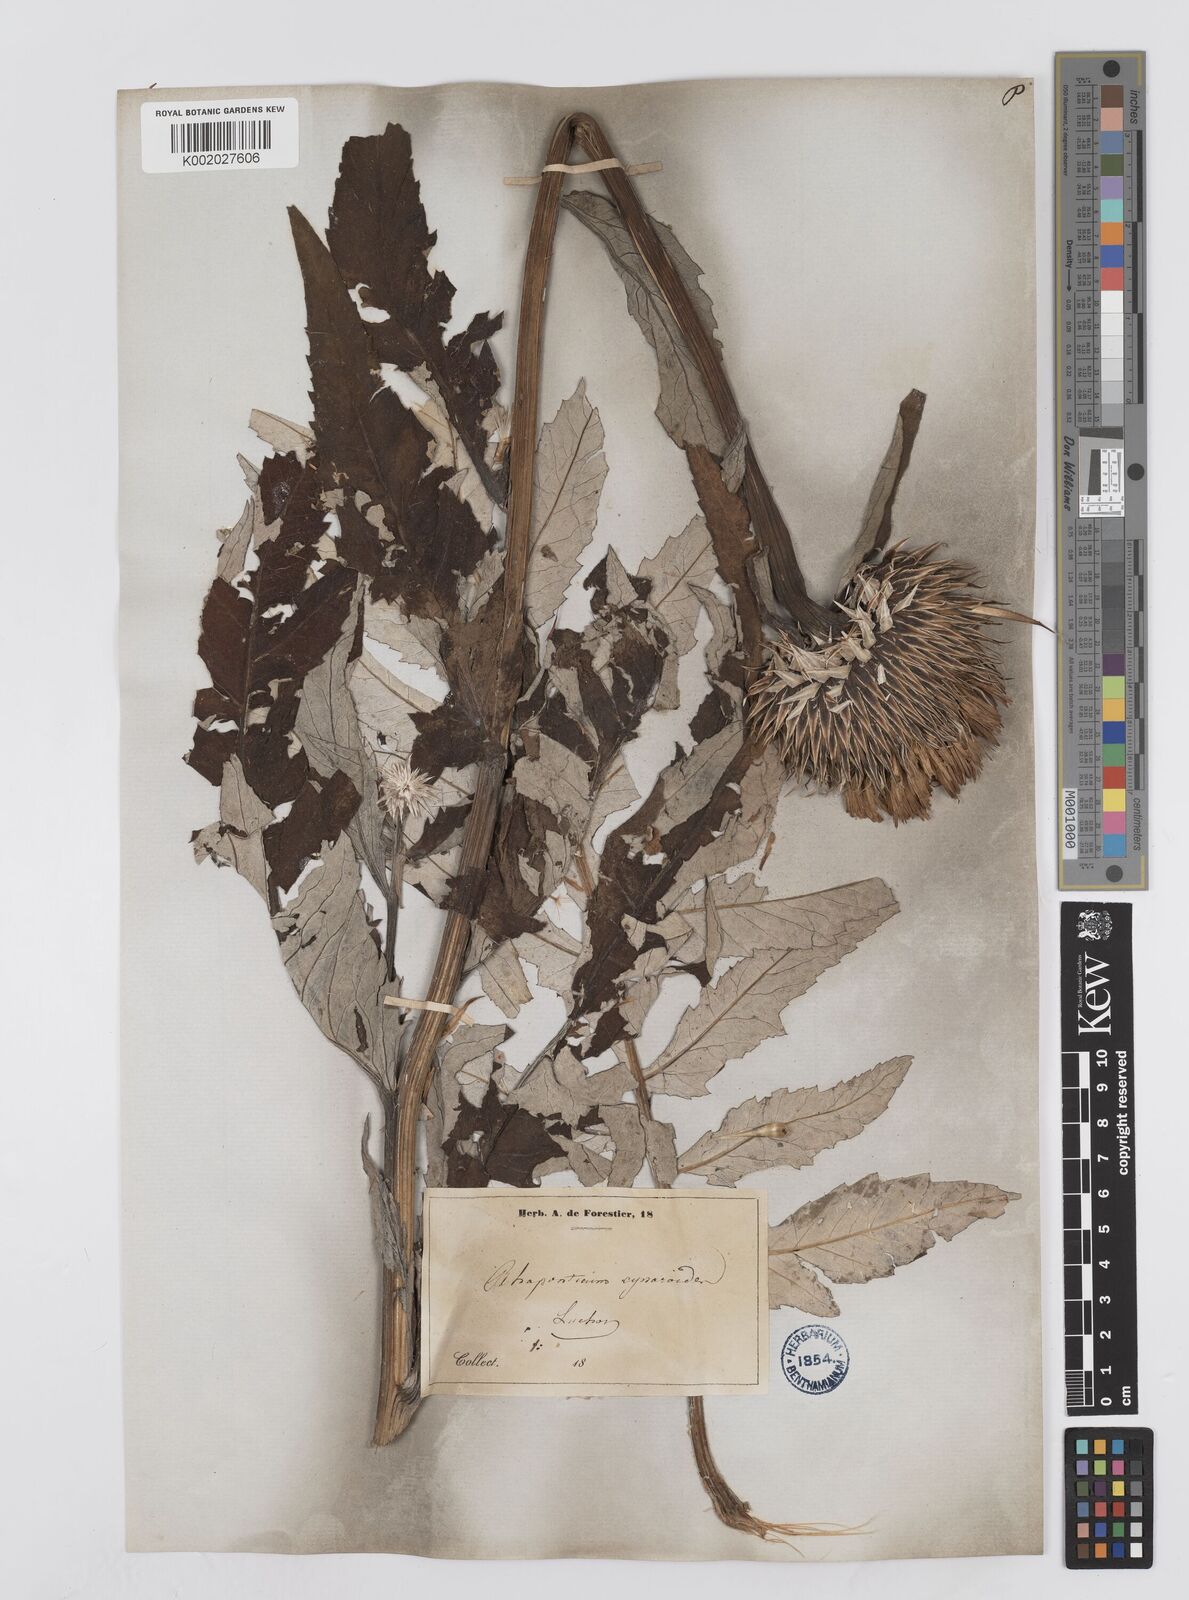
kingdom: Plantae
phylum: Tracheophyta
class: Magnoliopsida
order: Asterales
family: Asteraceae
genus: Leuzea
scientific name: Leuzea centauroides
